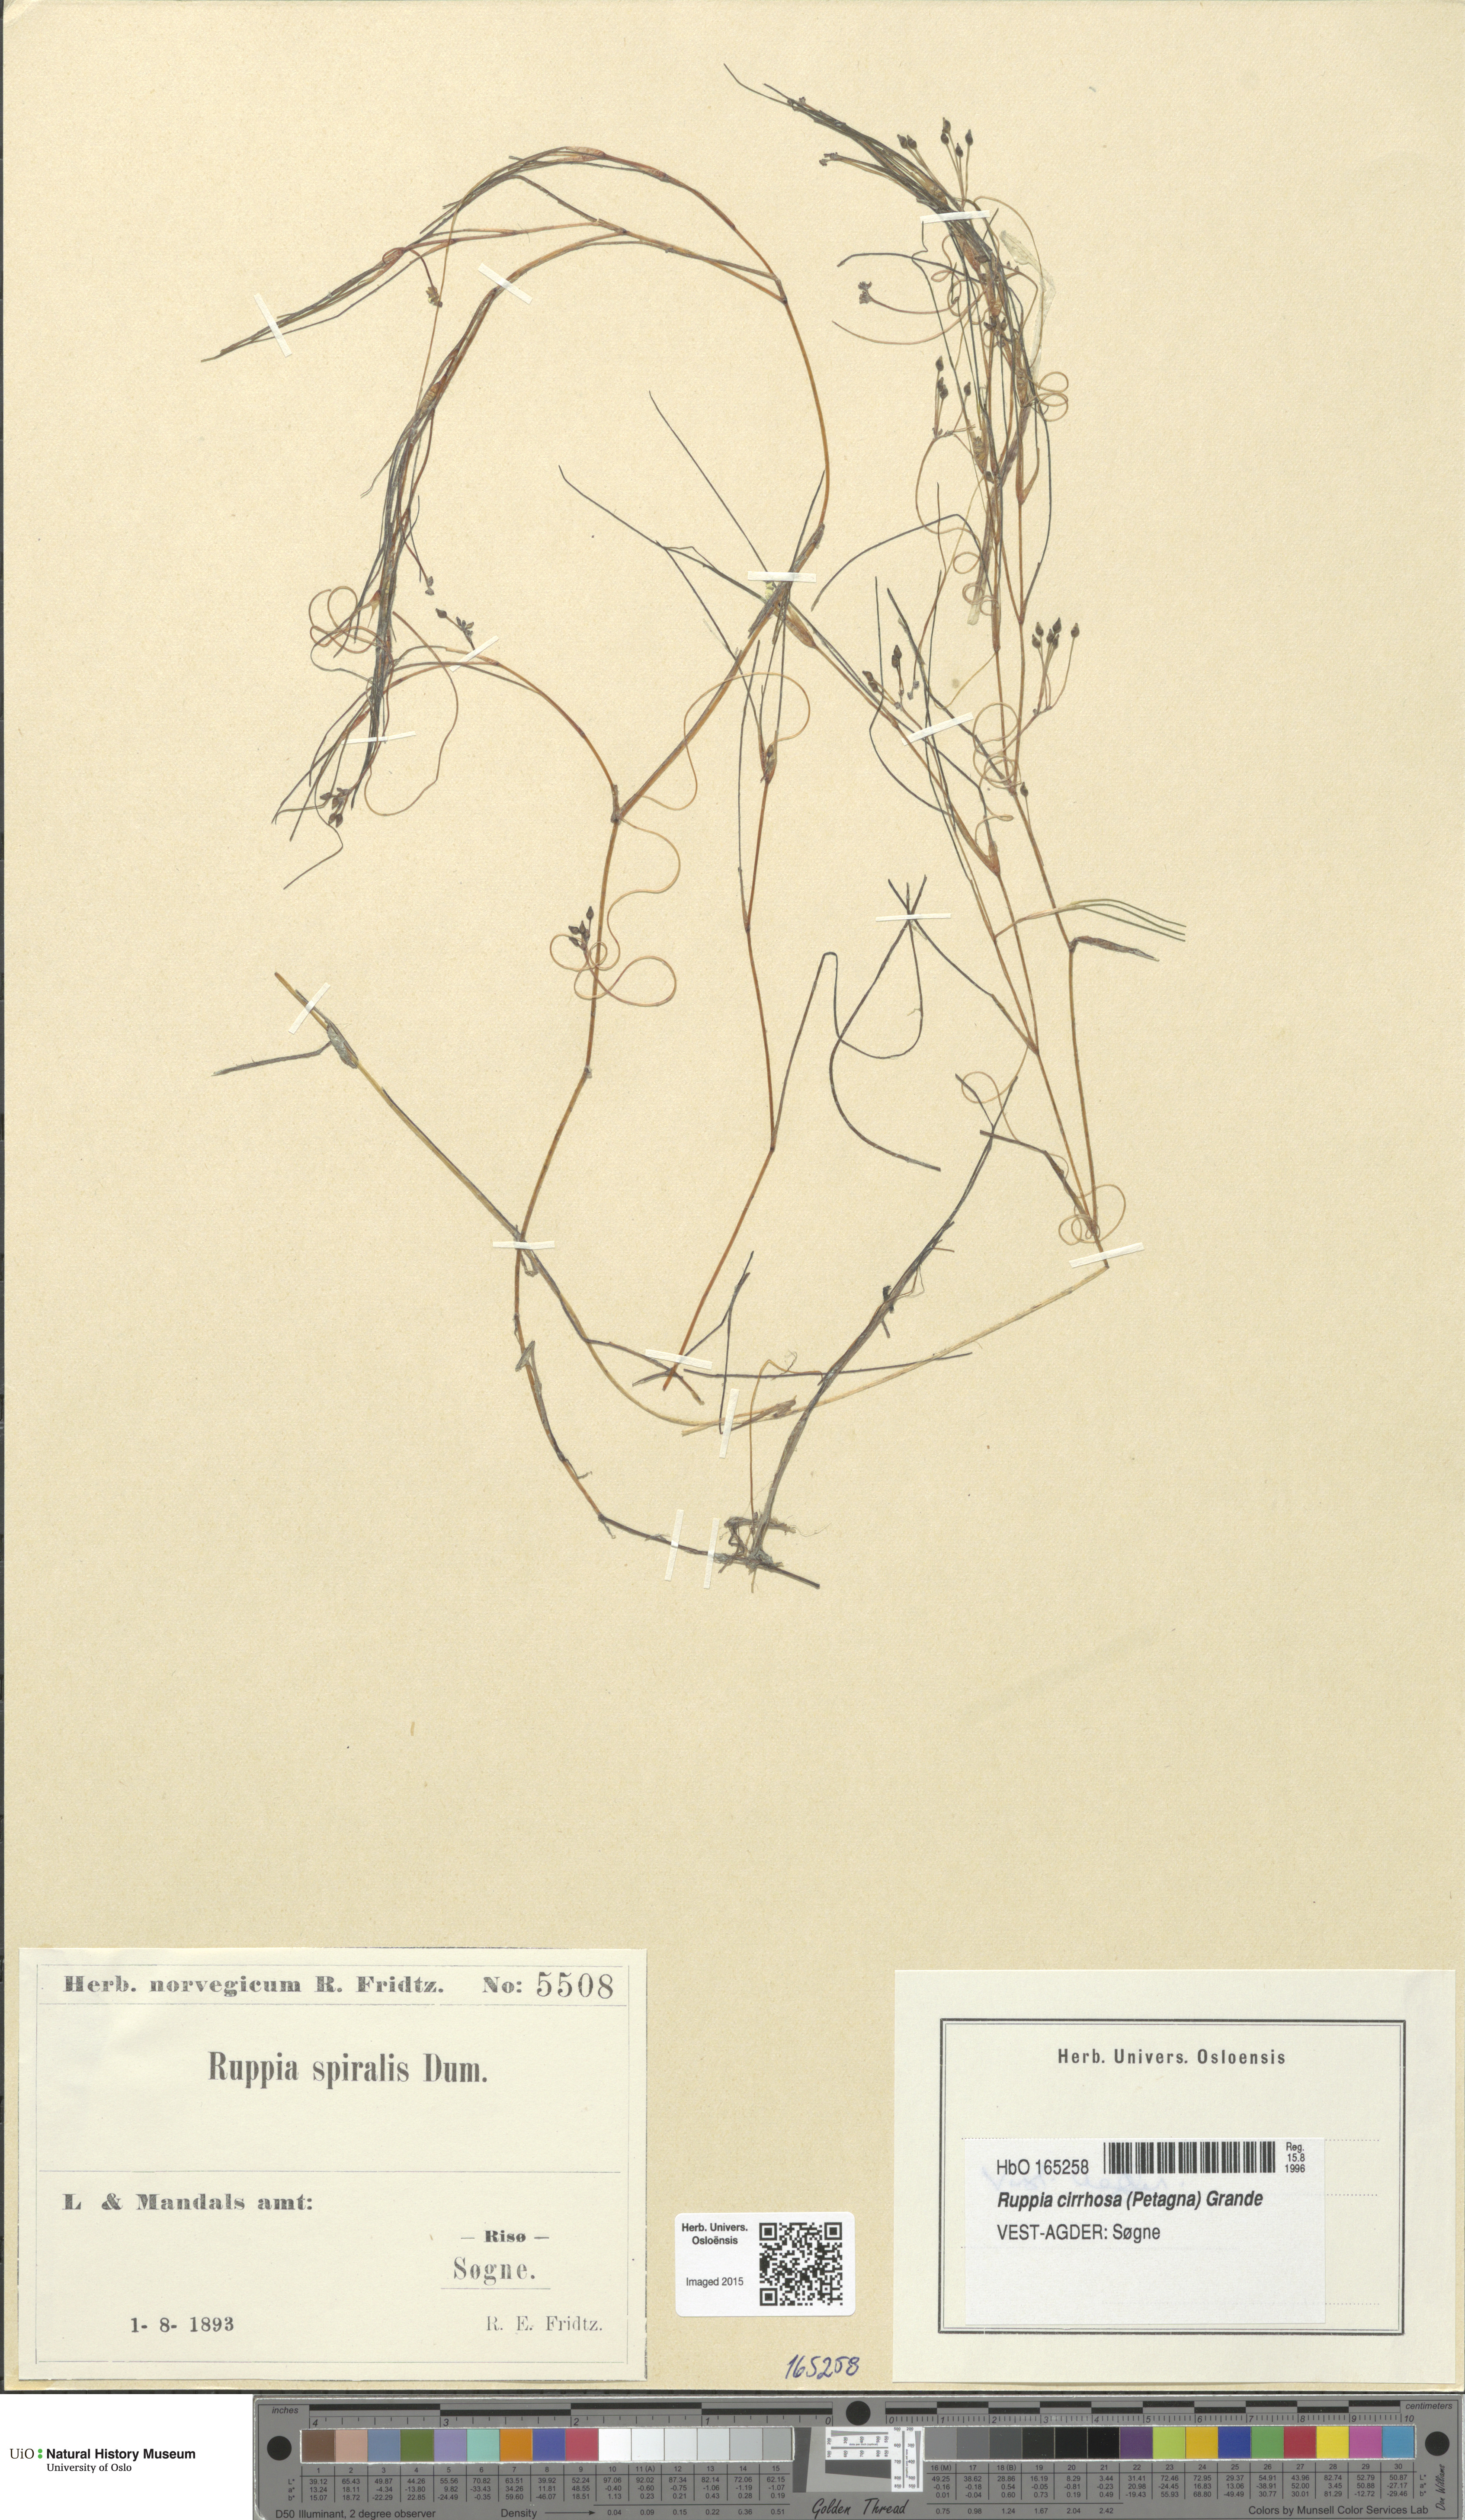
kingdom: Plantae
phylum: Tracheophyta
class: Liliopsida
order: Alismatales
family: Ruppiaceae
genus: Ruppia
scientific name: Ruppia cirrhosa
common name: Spiral tasselweed
